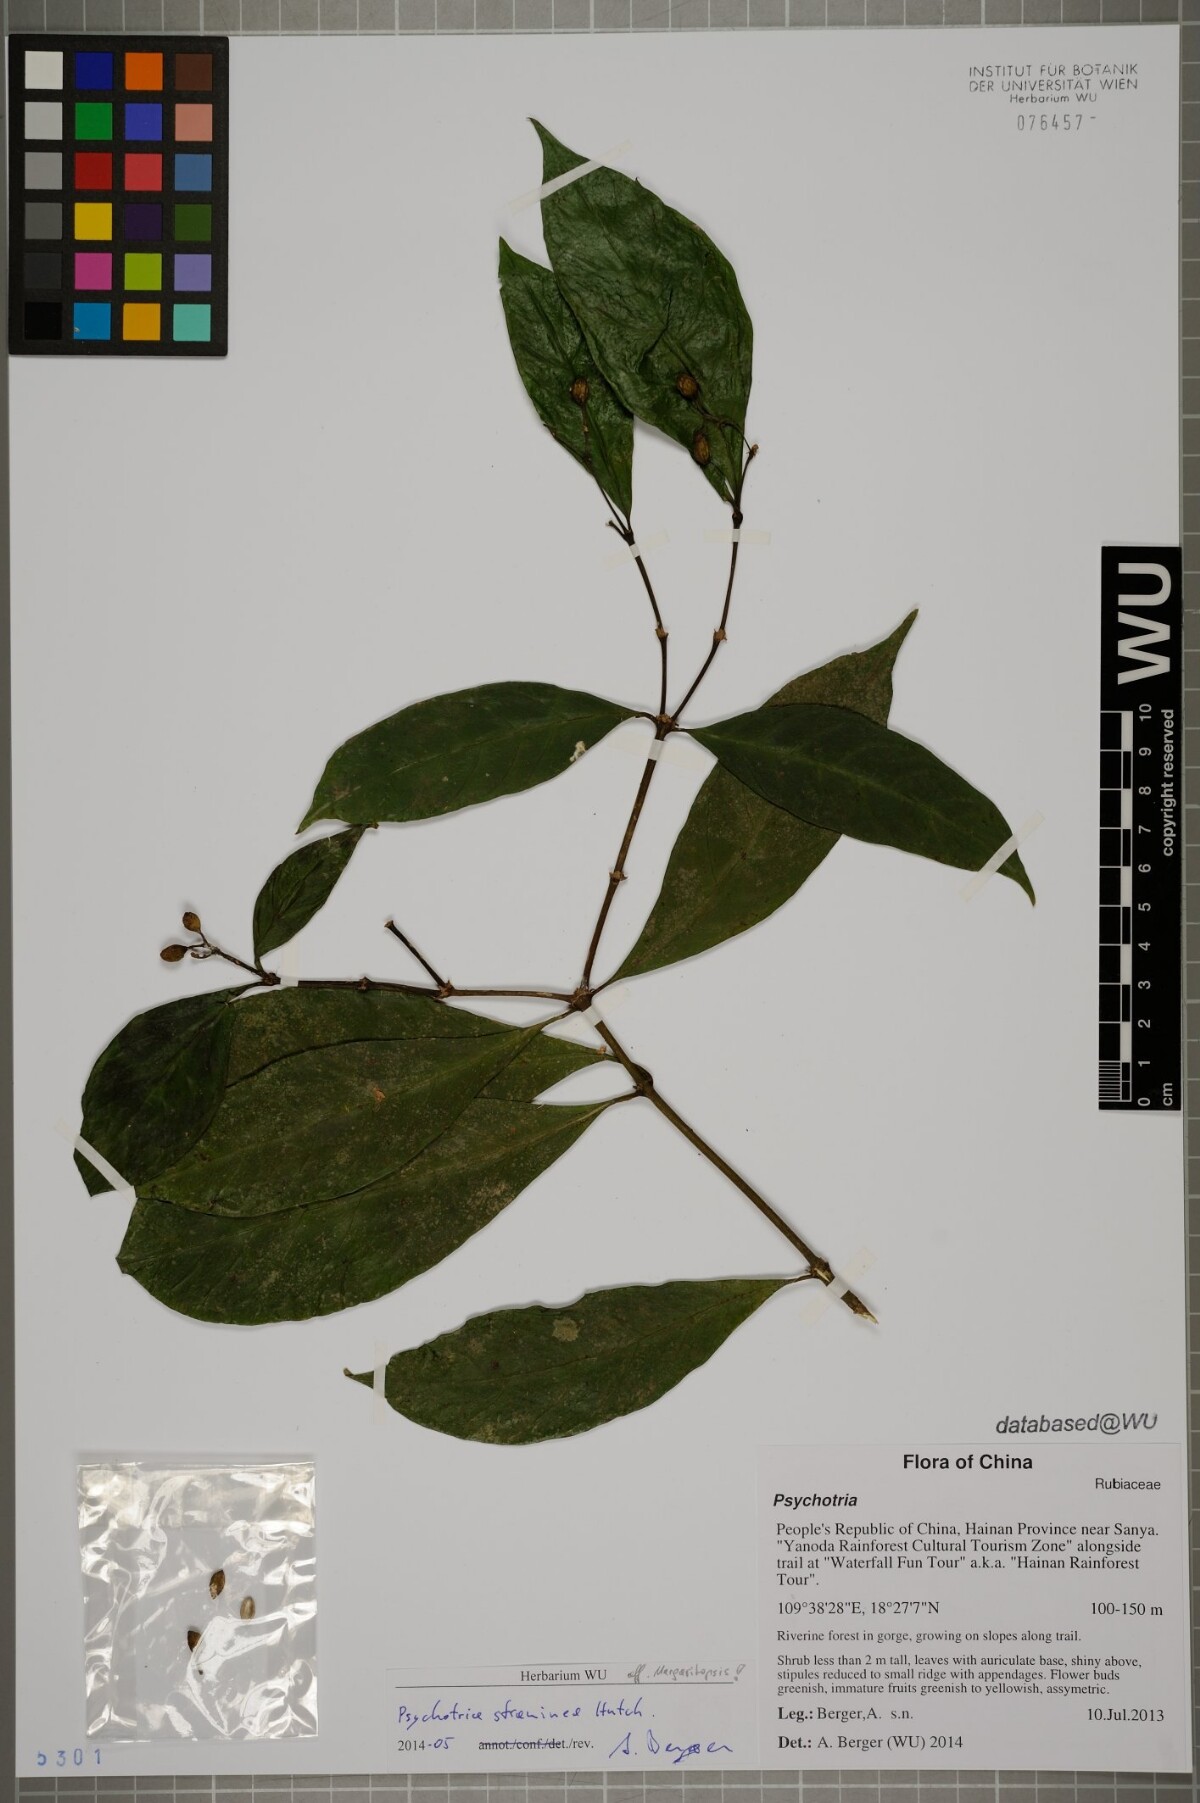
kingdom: Plantae
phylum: Tracheophyta
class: Magnoliopsida
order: Gentianales
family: Rubiaceae
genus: Eumachia
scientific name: Eumachia straminea
